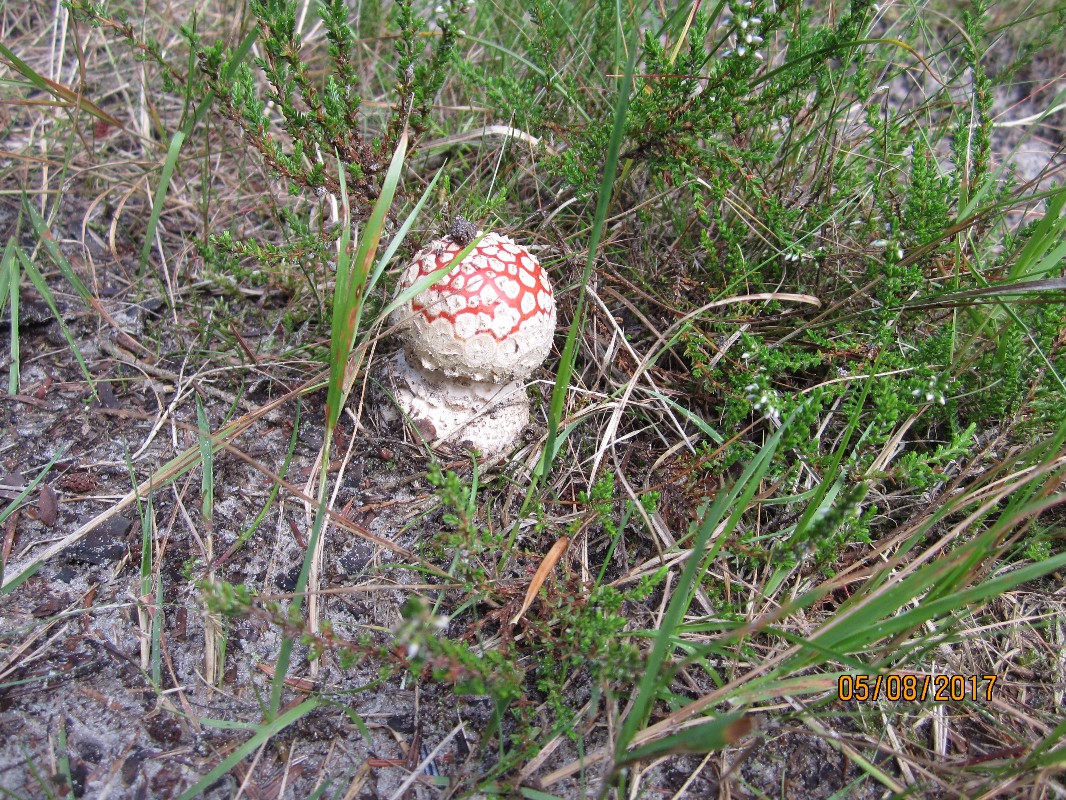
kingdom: Fungi
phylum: Basidiomycota
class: Agaricomycetes
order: Agaricales
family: Amanitaceae
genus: Amanita
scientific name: Amanita muscaria
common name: rød fluesvamp
